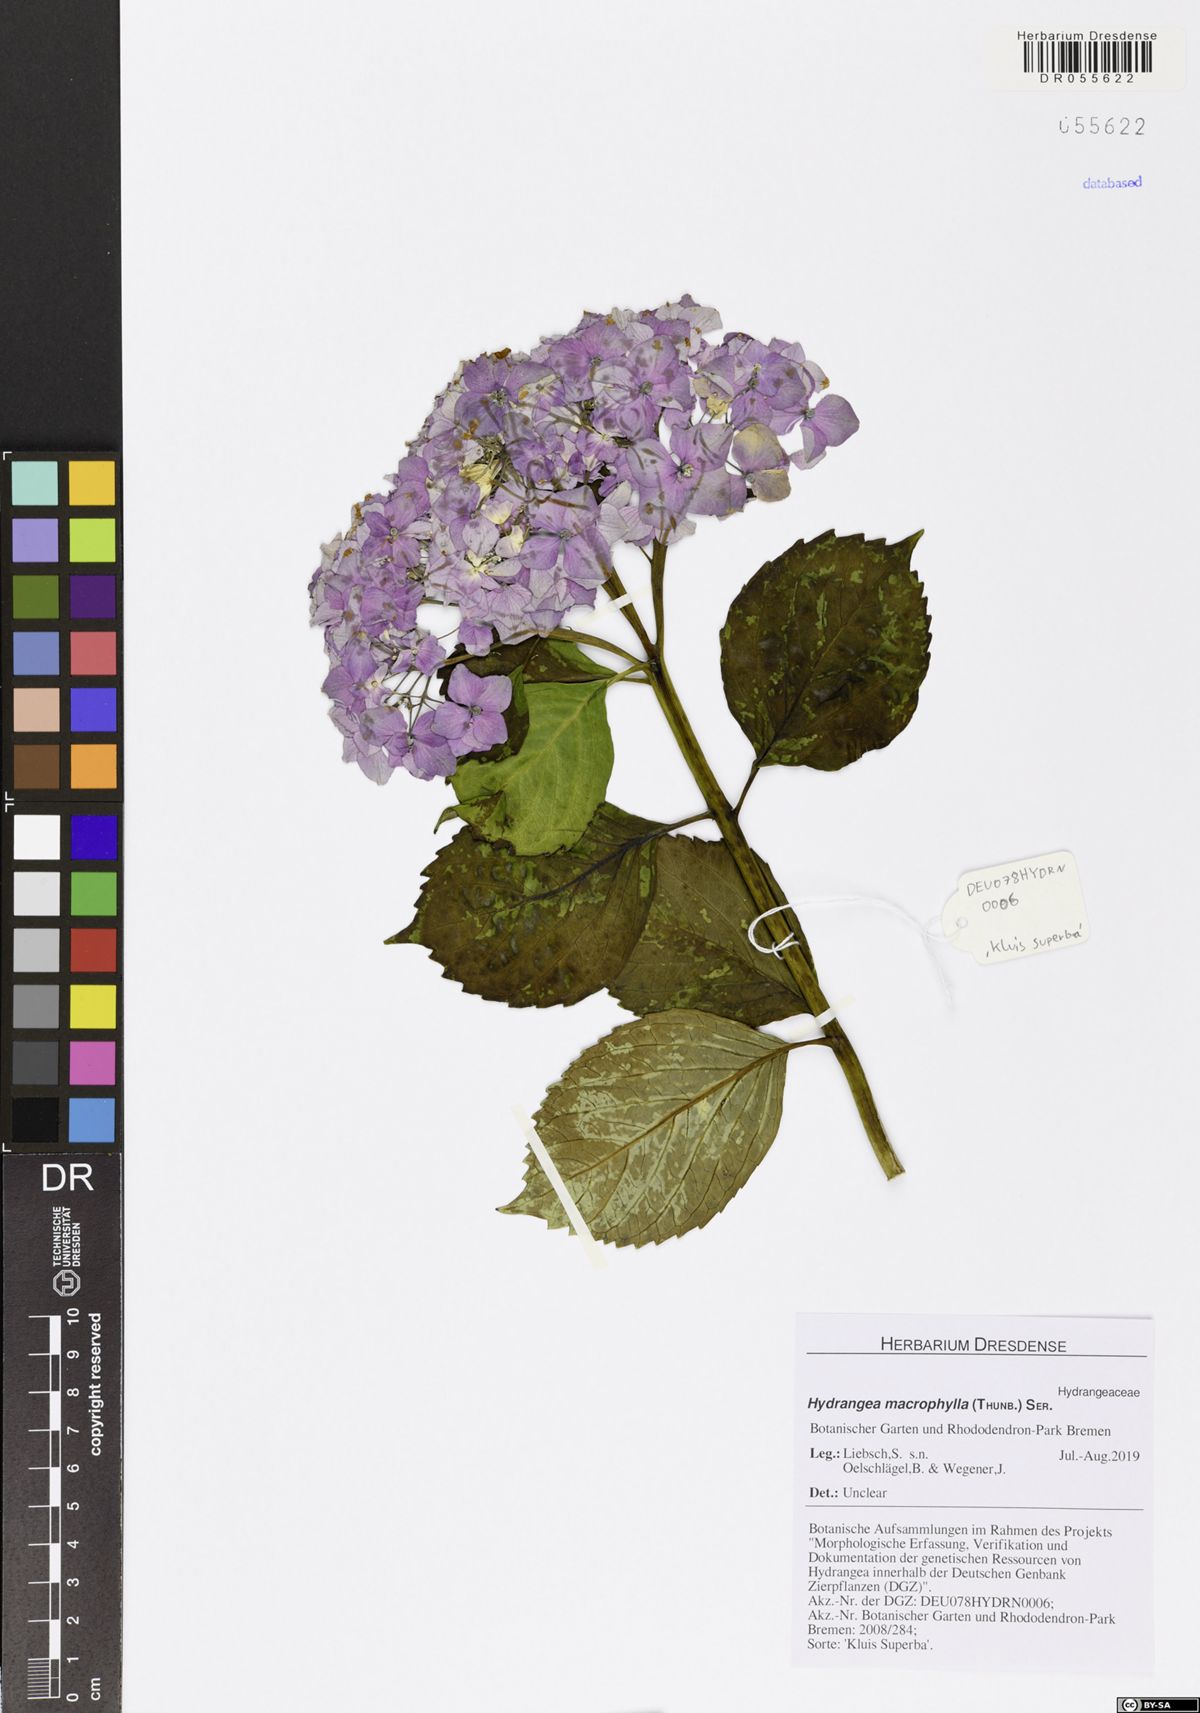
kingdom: Plantae
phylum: Tracheophyta
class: Magnoliopsida
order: Cornales
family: Hydrangeaceae
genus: Hydrangea
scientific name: Hydrangea macrophylla
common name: Hydrangea
